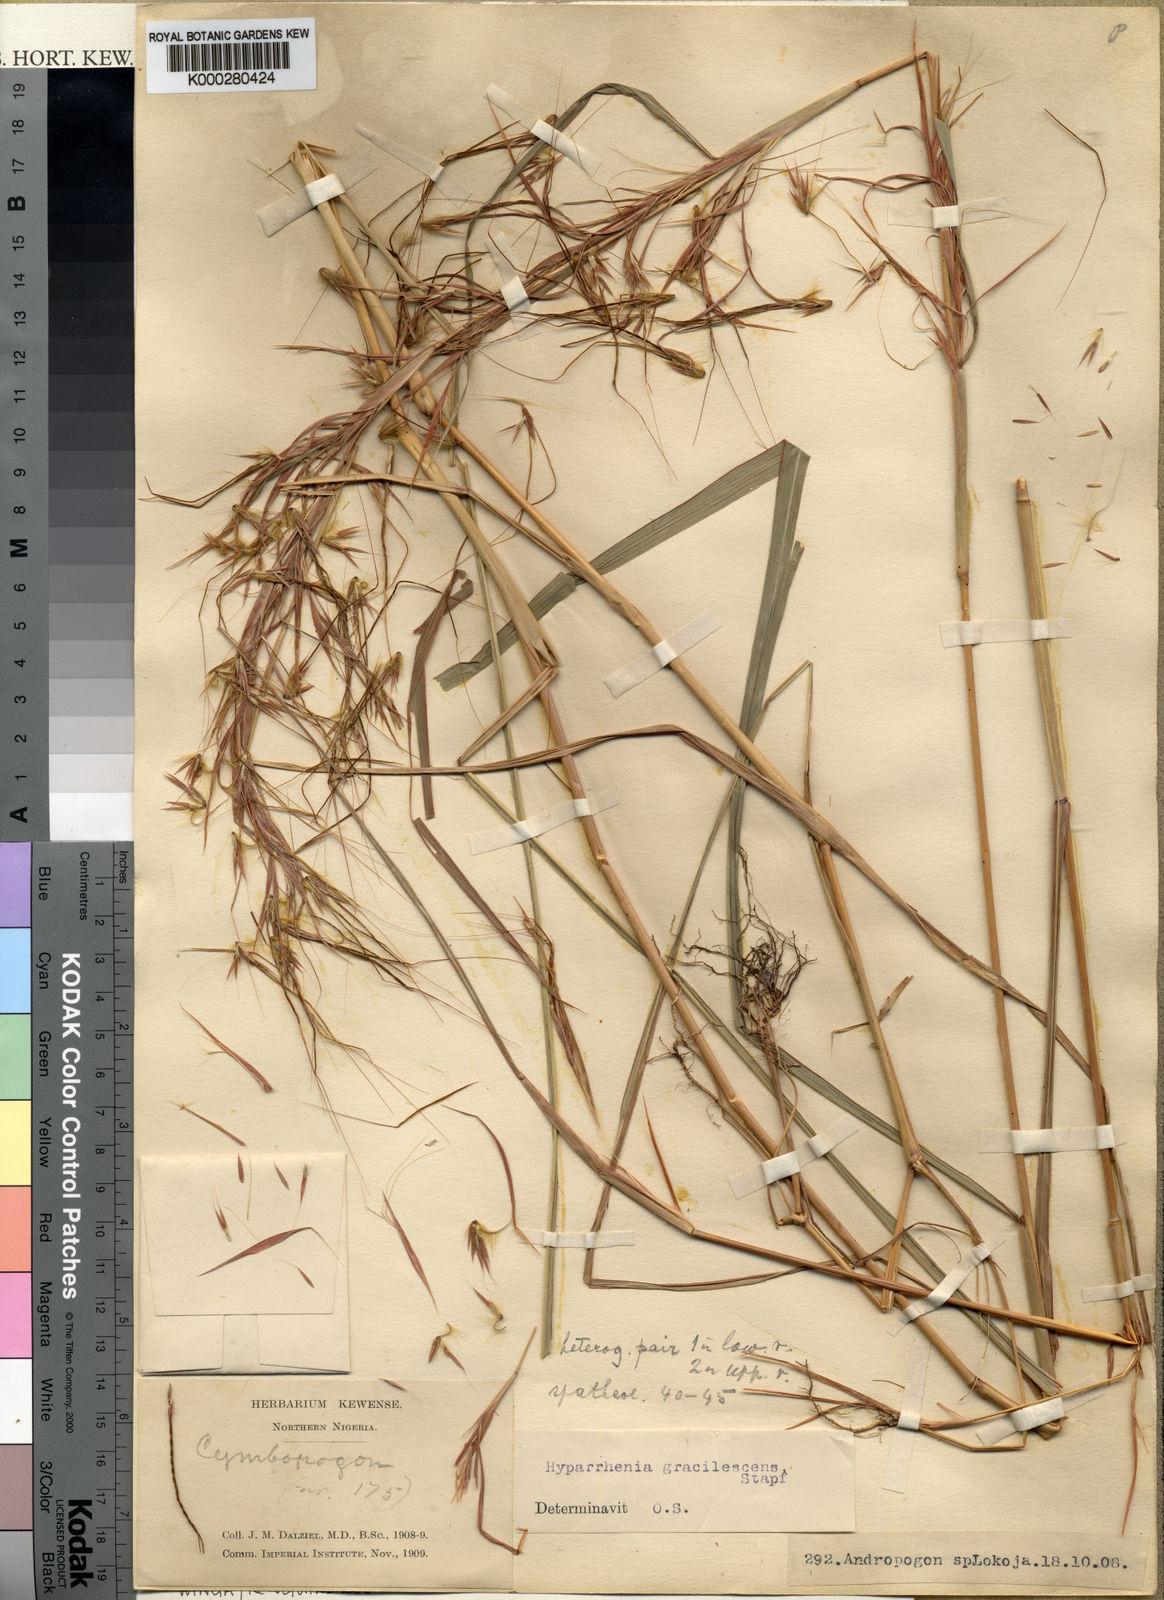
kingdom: Plantae
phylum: Tracheophyta
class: Liliopsida
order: Poales
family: Poaceae
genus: Hyparrhenia
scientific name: Hyparrhenia welwitschii
